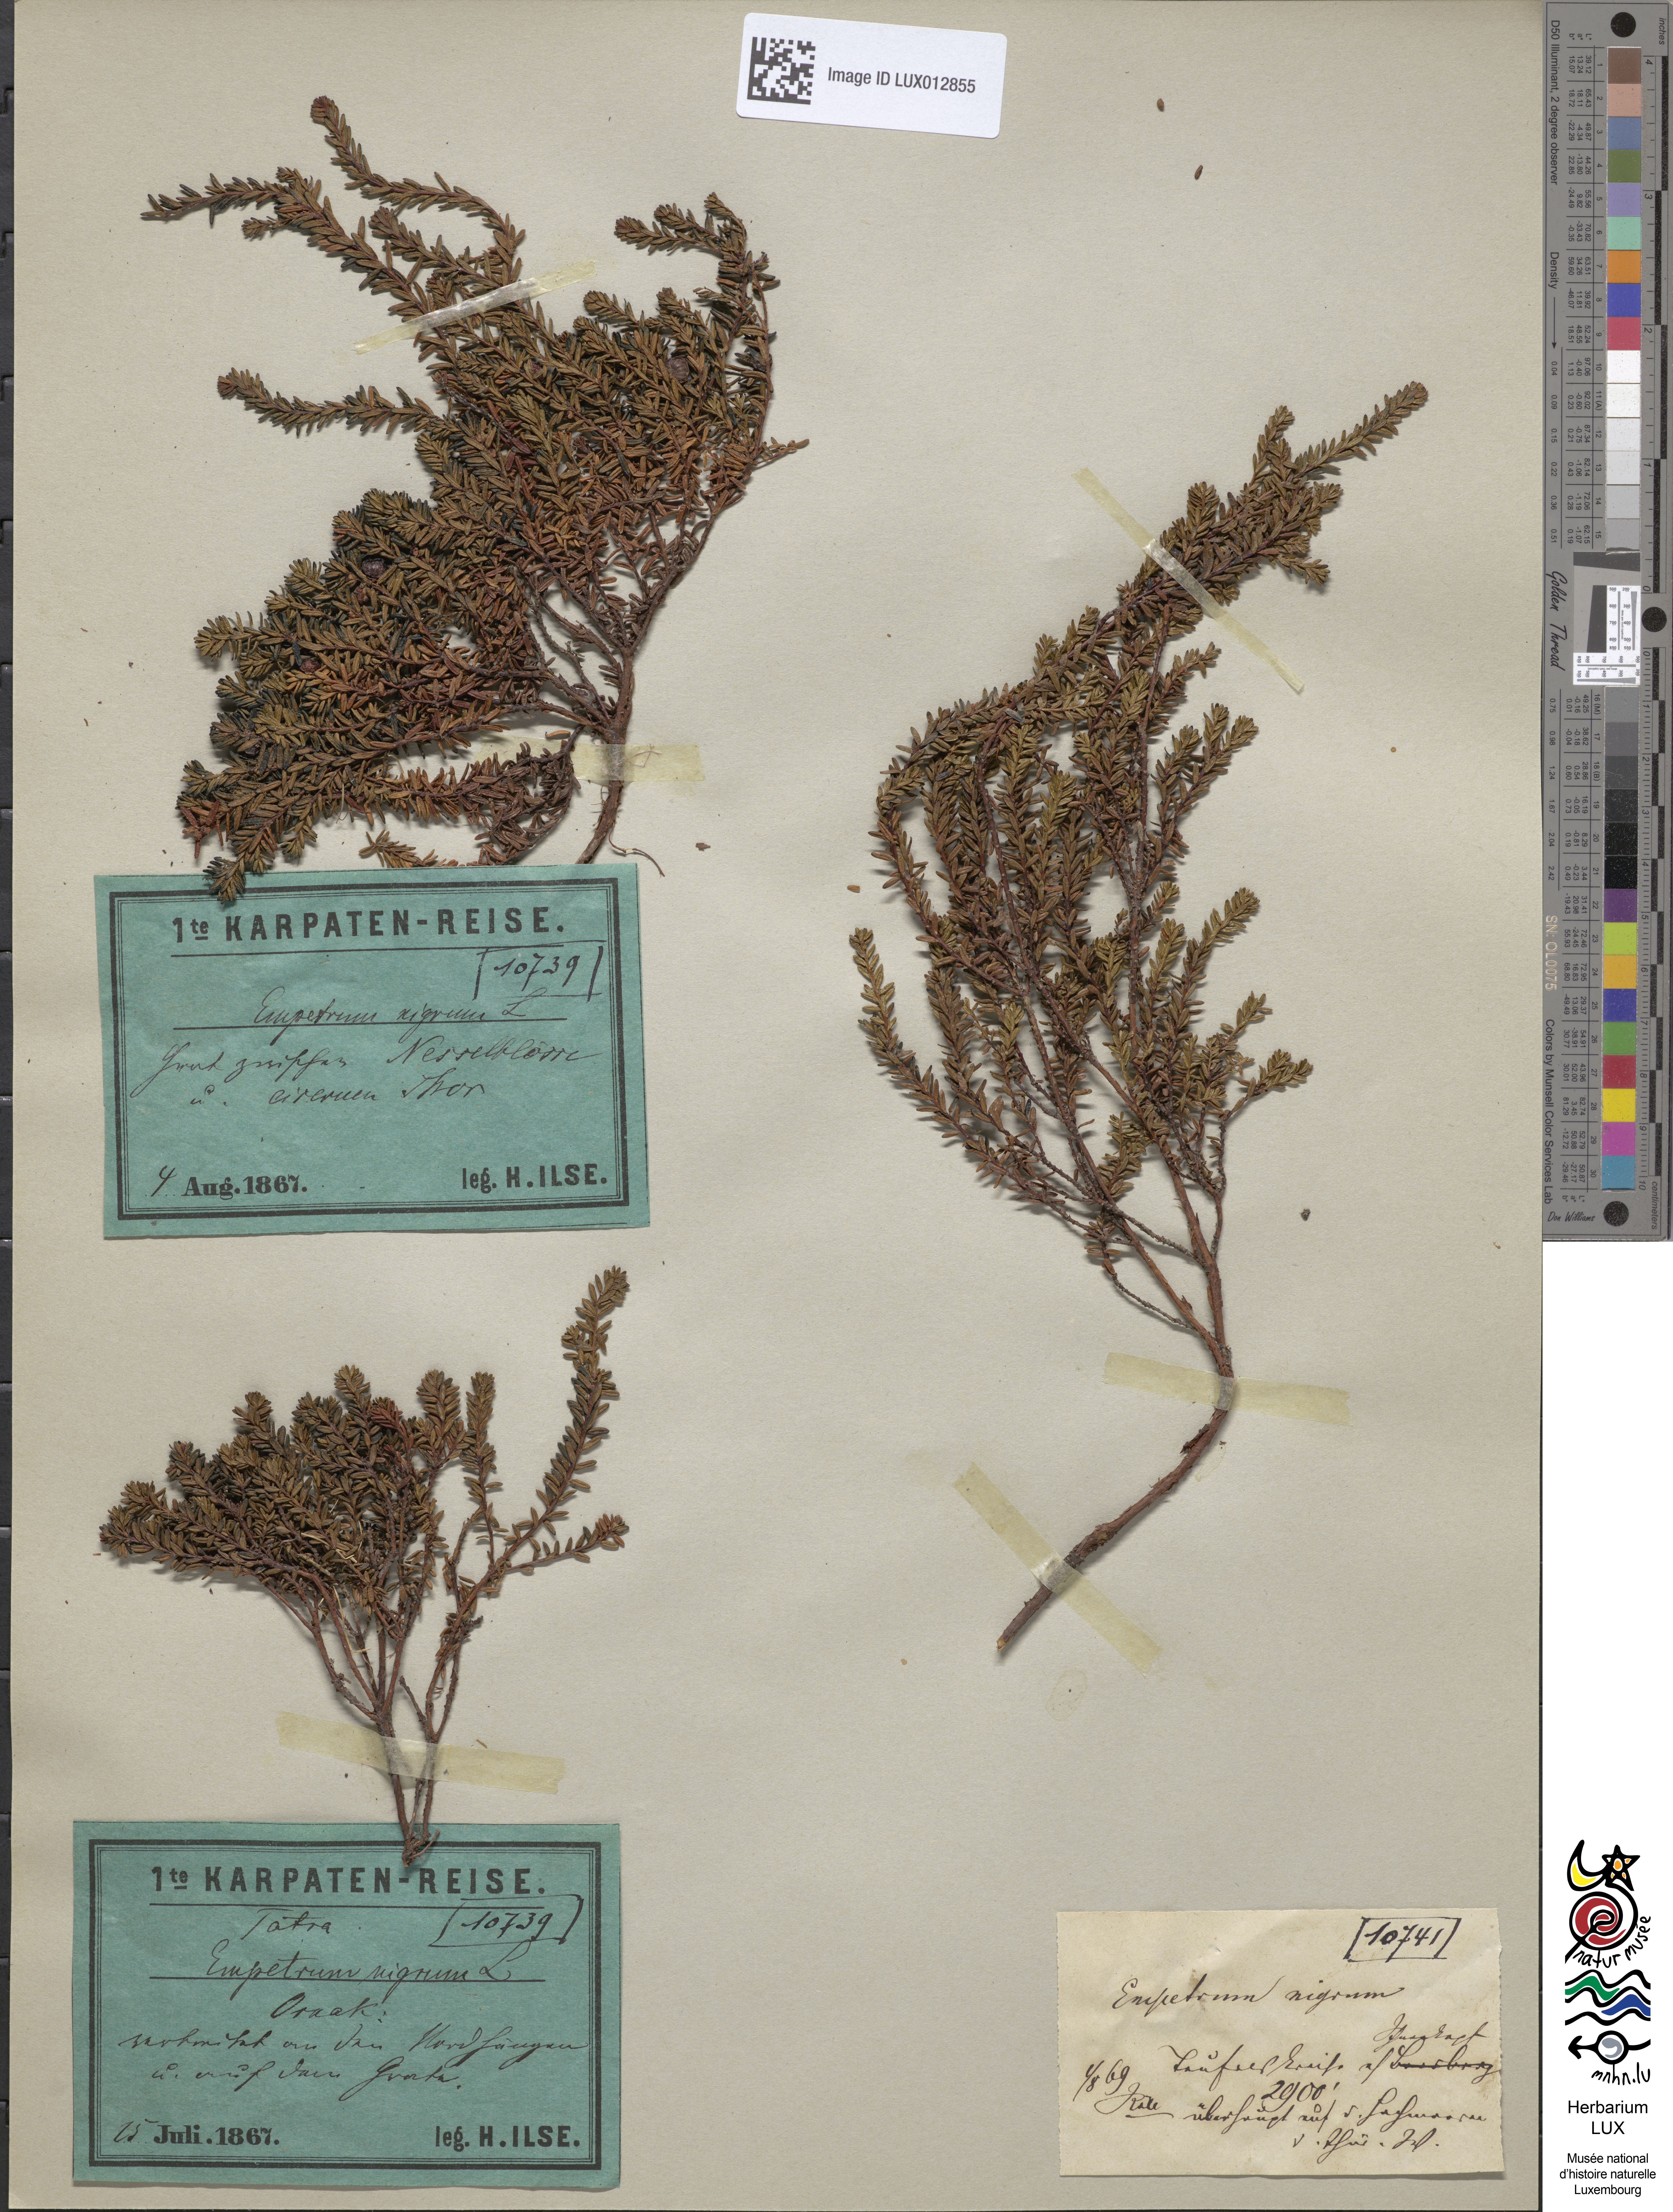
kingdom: Plantae
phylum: Tracheophyta
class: Magnoliopsida
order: Ericales
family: Ericaceae
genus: Empetrum
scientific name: Empetrum nigrum
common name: Black crowberry
